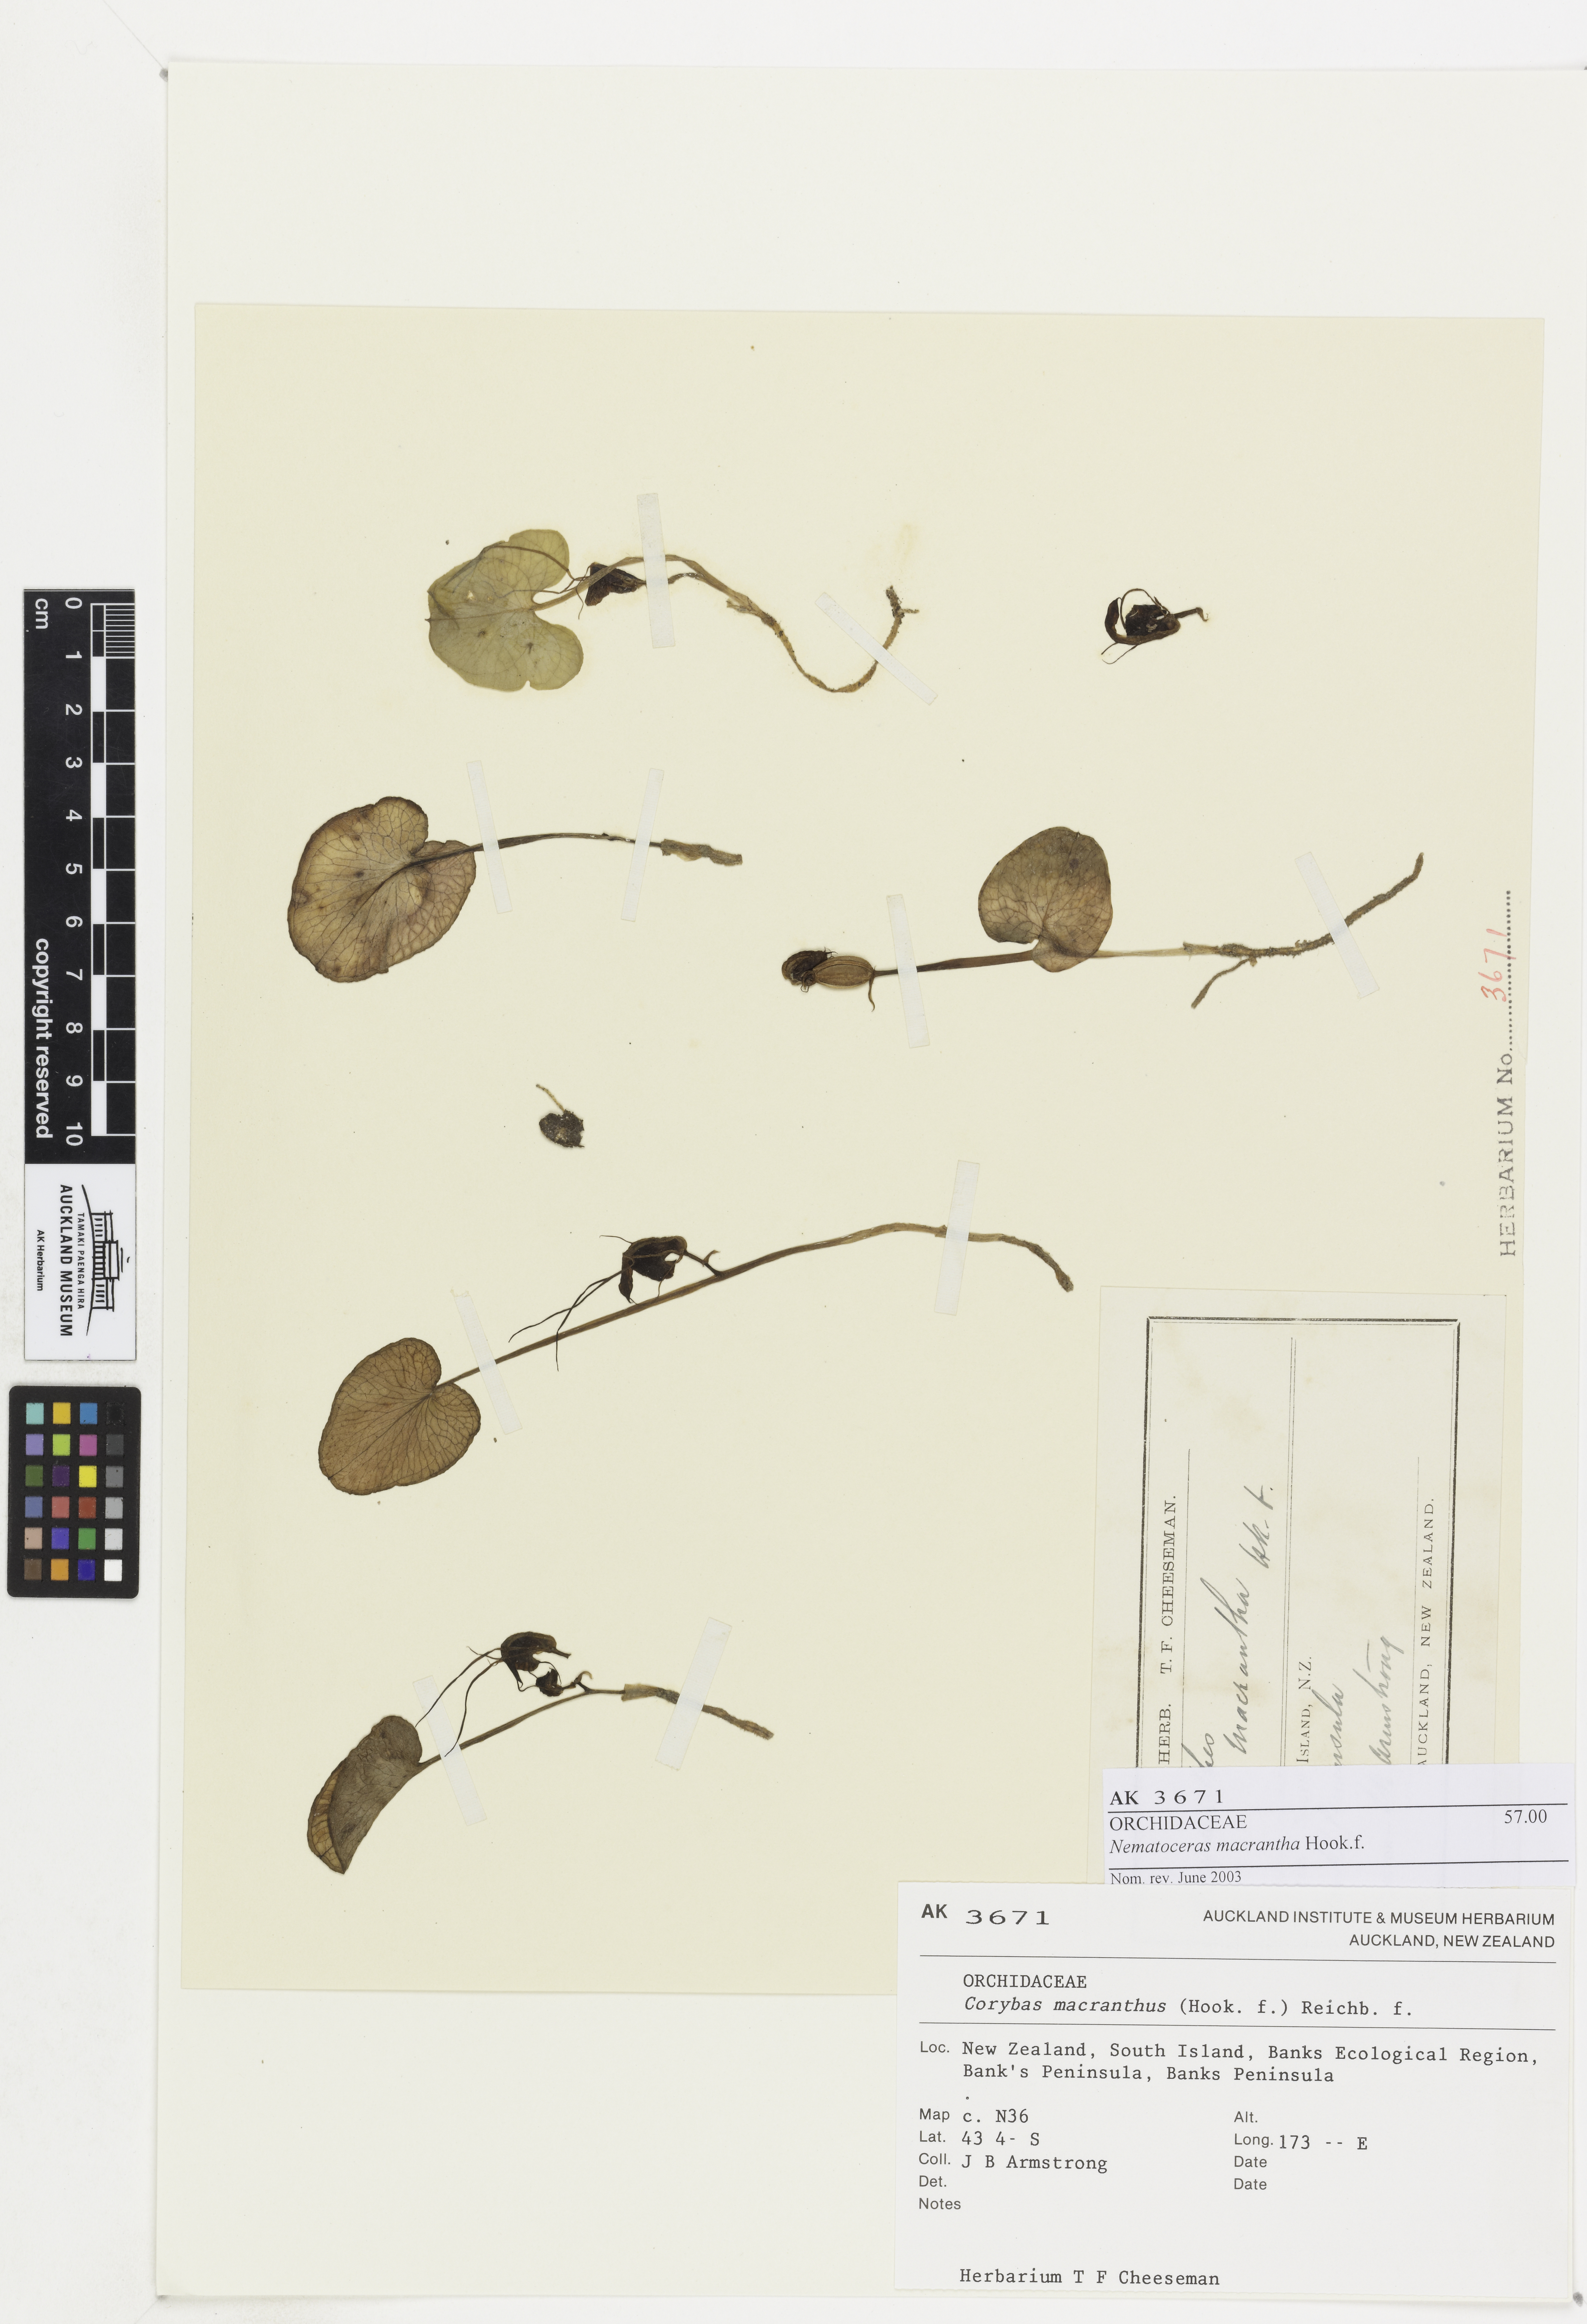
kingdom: Plantae
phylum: Tracheophyta
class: Liliopsida
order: Asparagales
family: Orchidaceae
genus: Corybas
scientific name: Corybas macranthus
